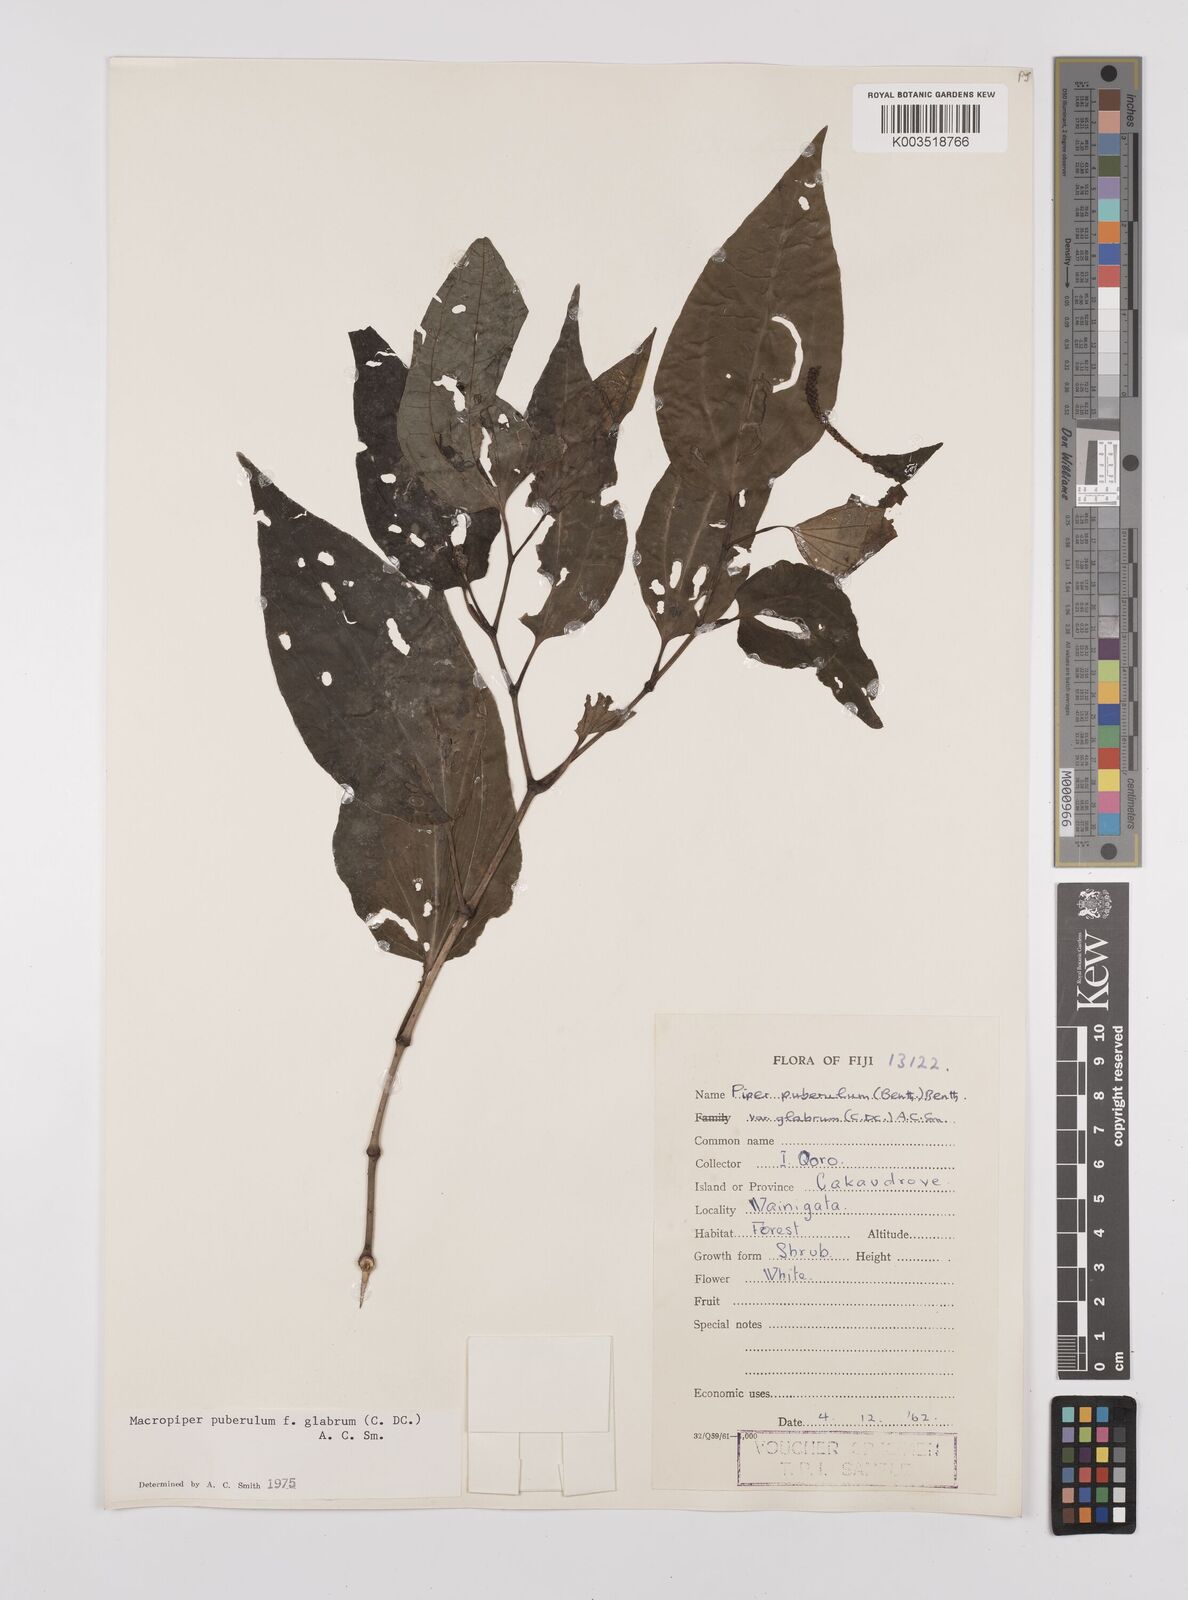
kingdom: Plantae
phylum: Tracheophyta
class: Magnoliopsida
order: Piperales
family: Piperaceae
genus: Macropiper
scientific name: Macropiper puberulum
